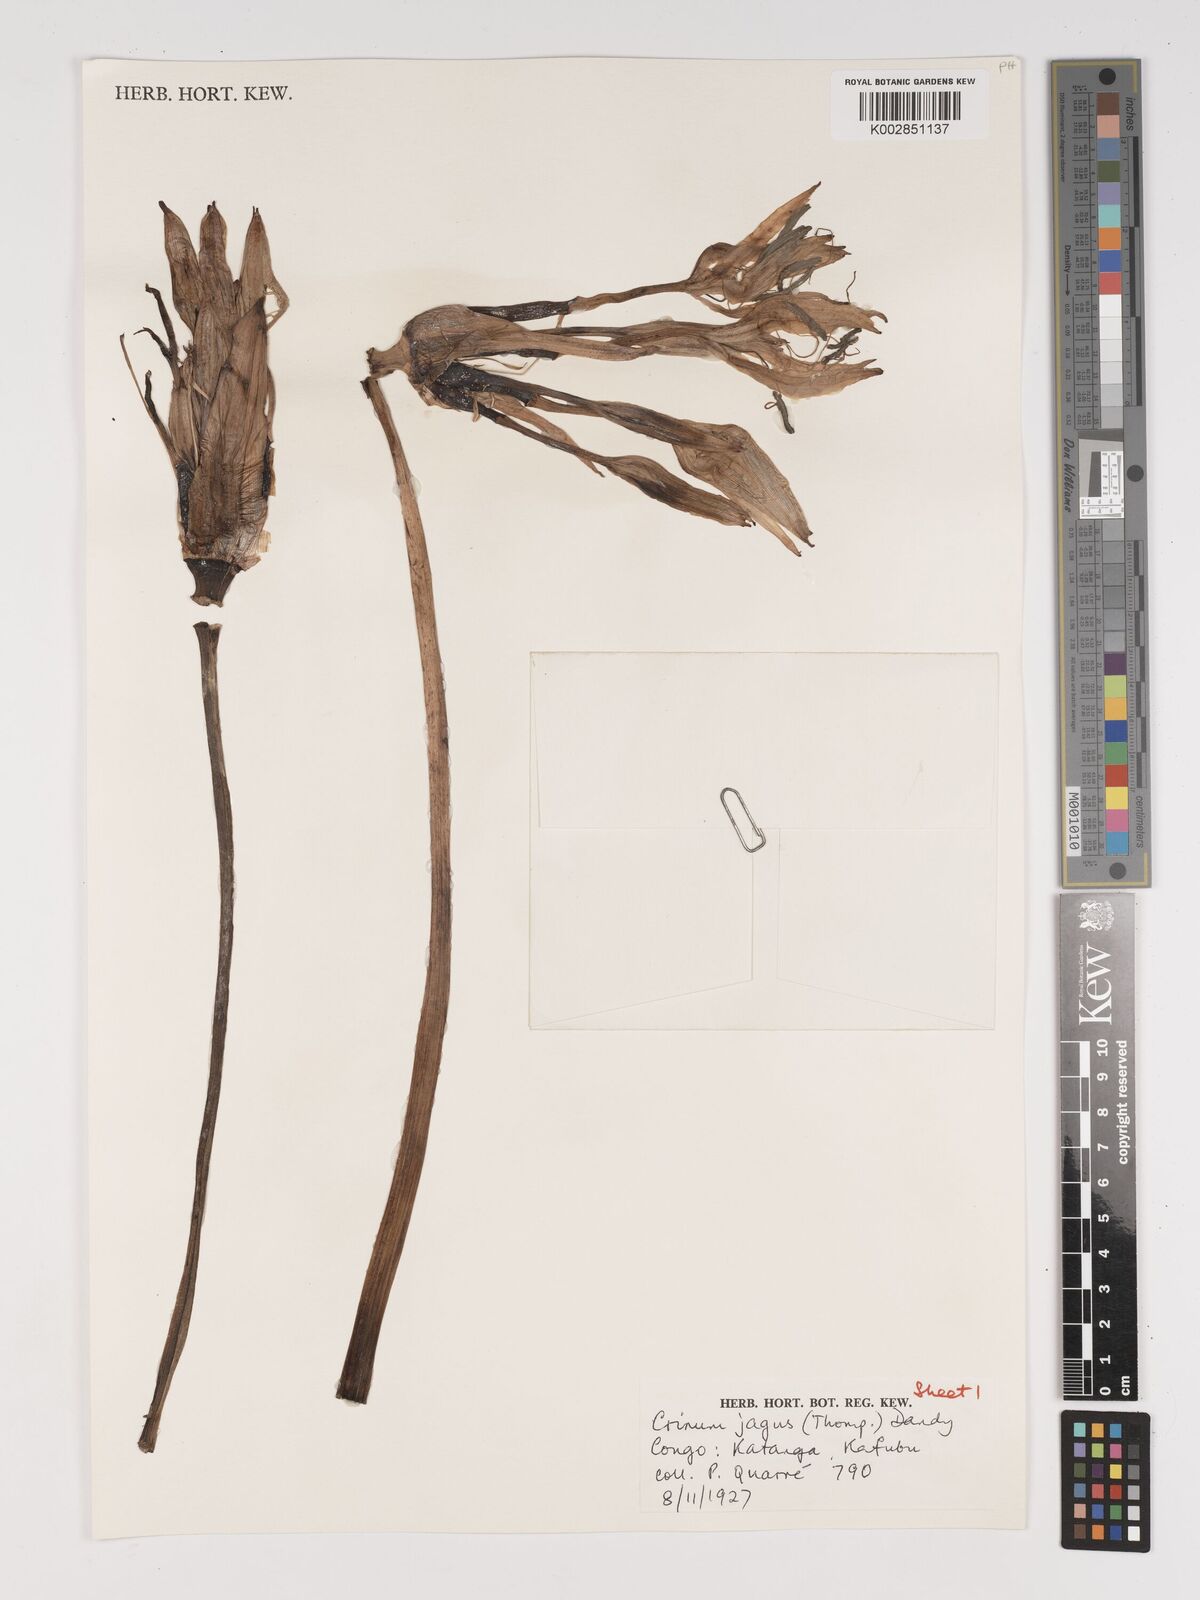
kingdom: Plantae
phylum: Tracheophyta
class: Liliopsida
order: Asparagales
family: Amaryllidaceae
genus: Crinum
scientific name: Crinum jagus
